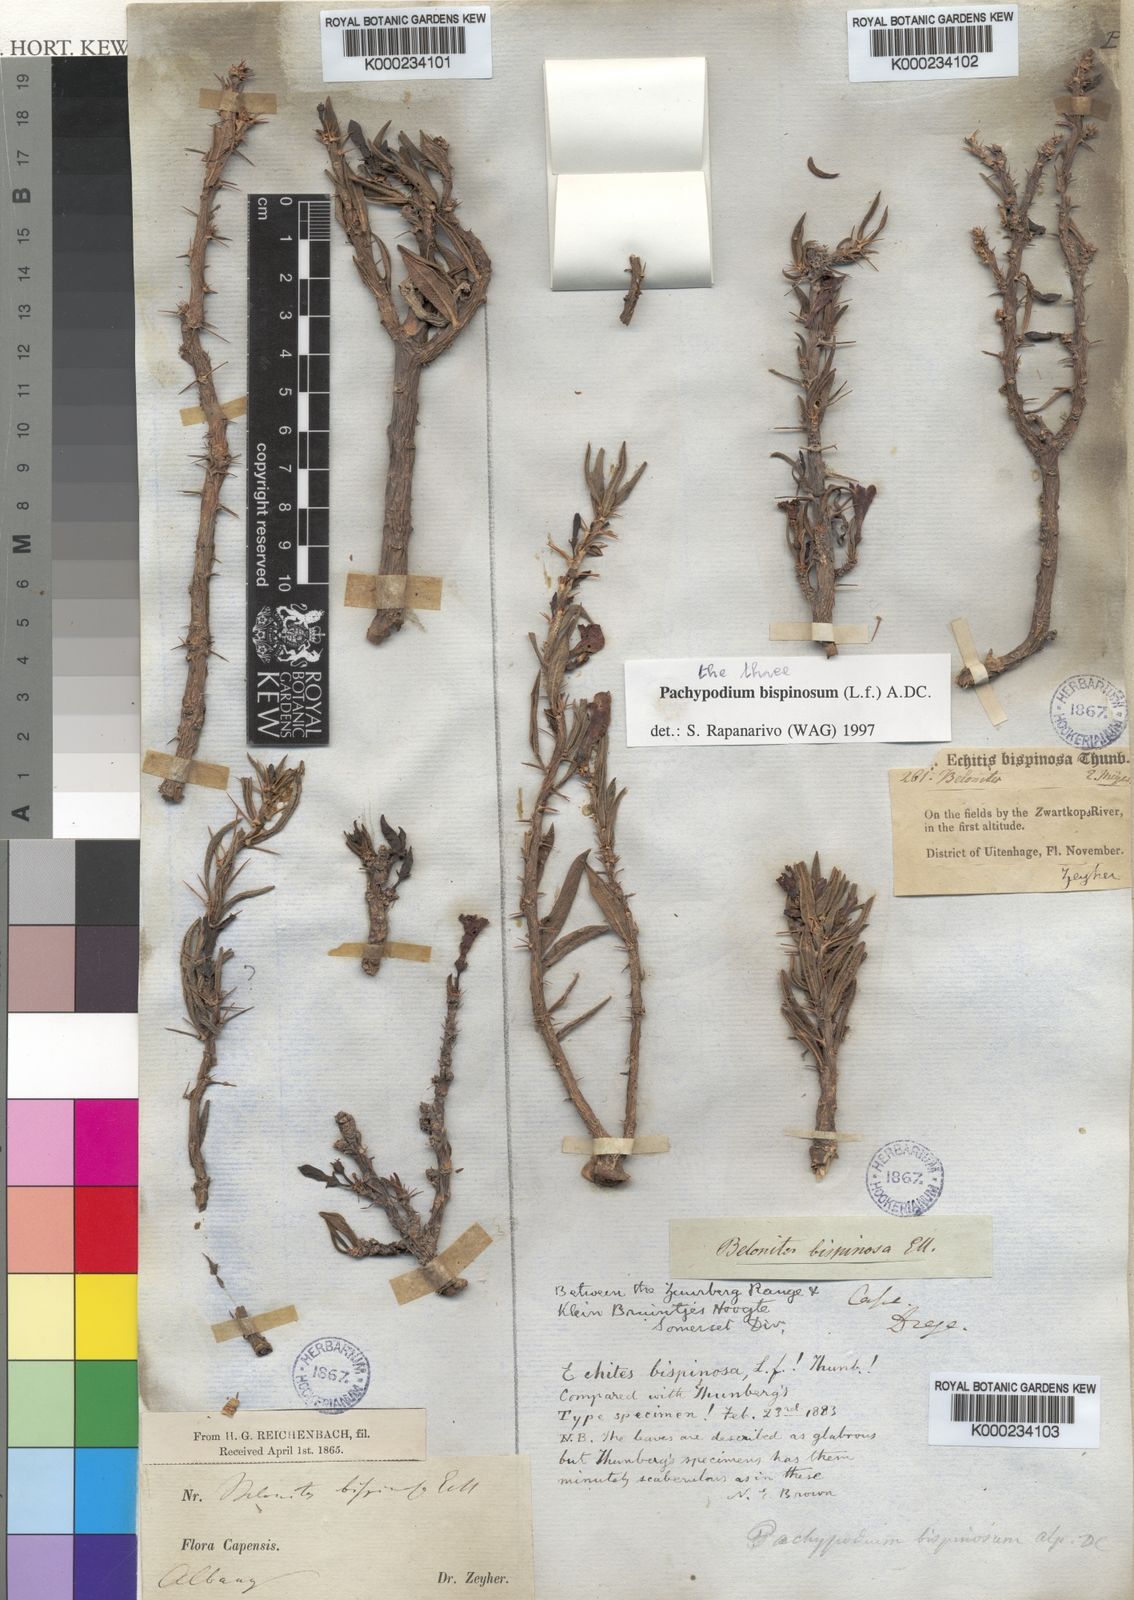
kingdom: Plantae
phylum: Tracheophyta
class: Magnoliopsida
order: Gentianales
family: Apocynaceae
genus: Pachypodium
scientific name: Pachypodium bispinosum
